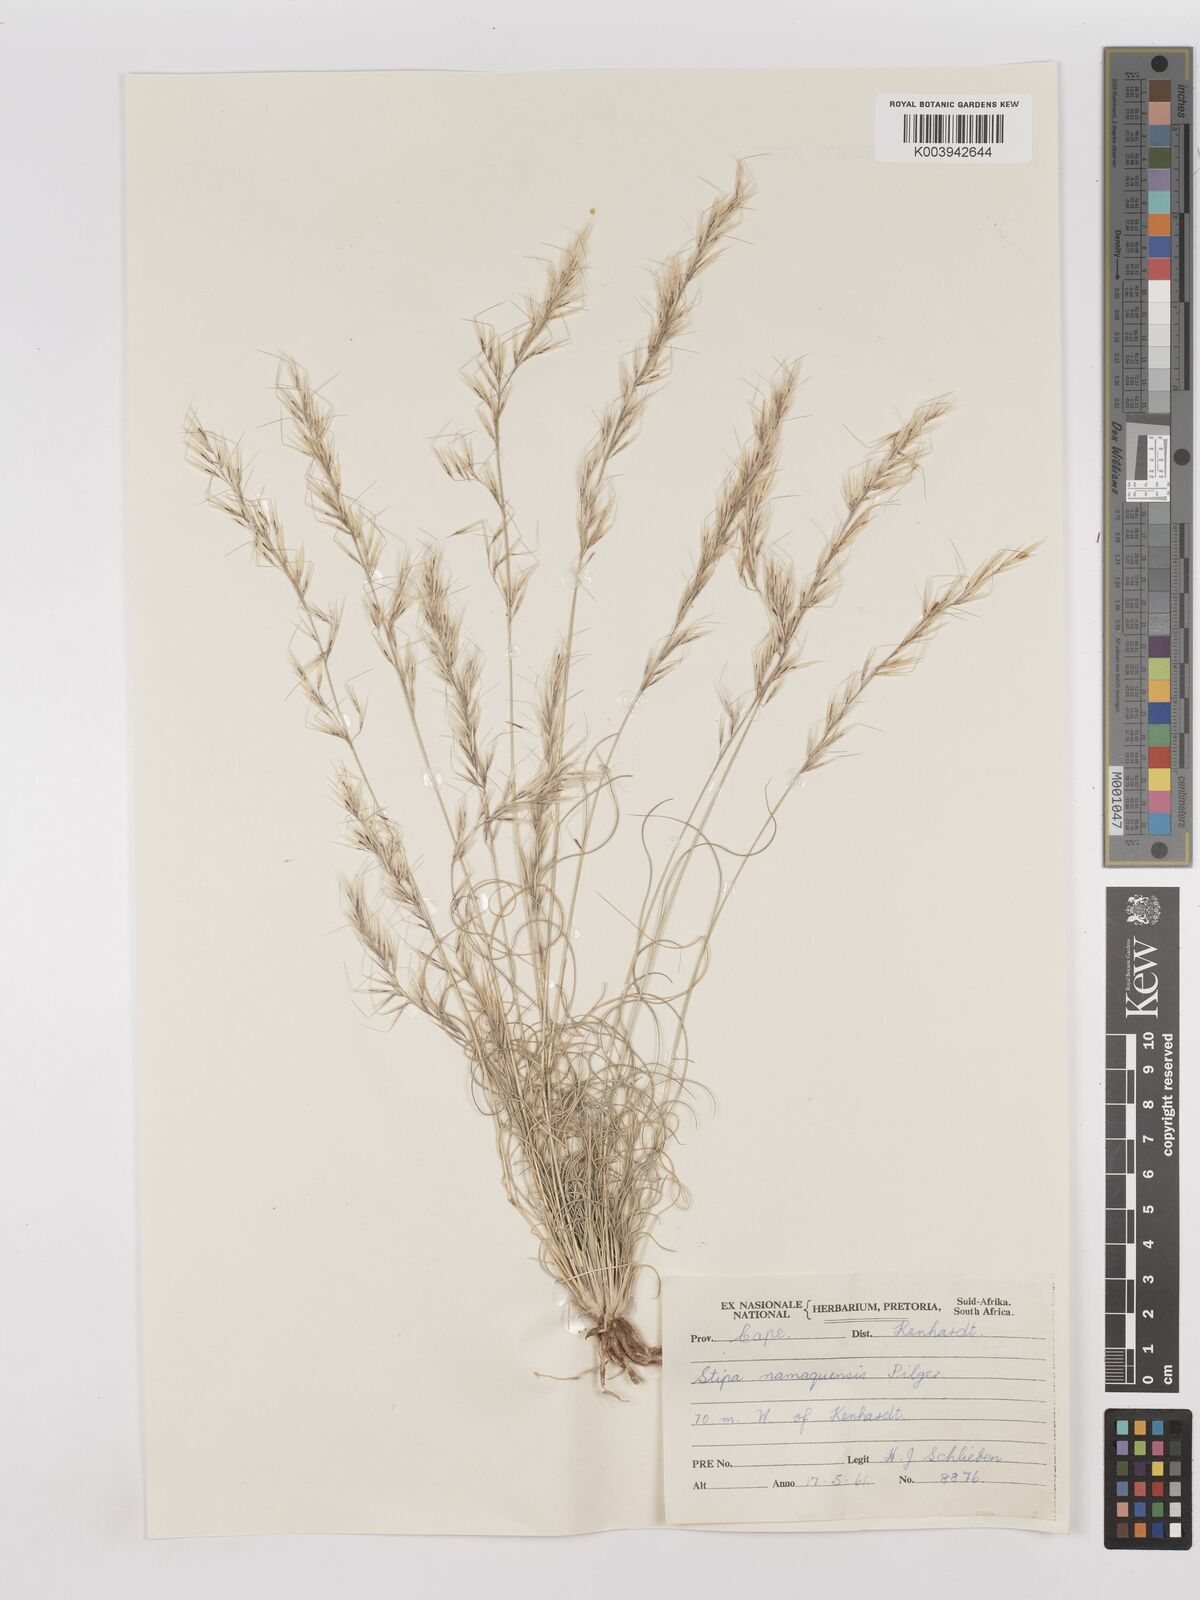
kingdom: Plantae
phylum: Tracheophyta
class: Liliopsida
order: Poales
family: Poaceae
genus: Stipagrostis
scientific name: Stipagrostis anomala
